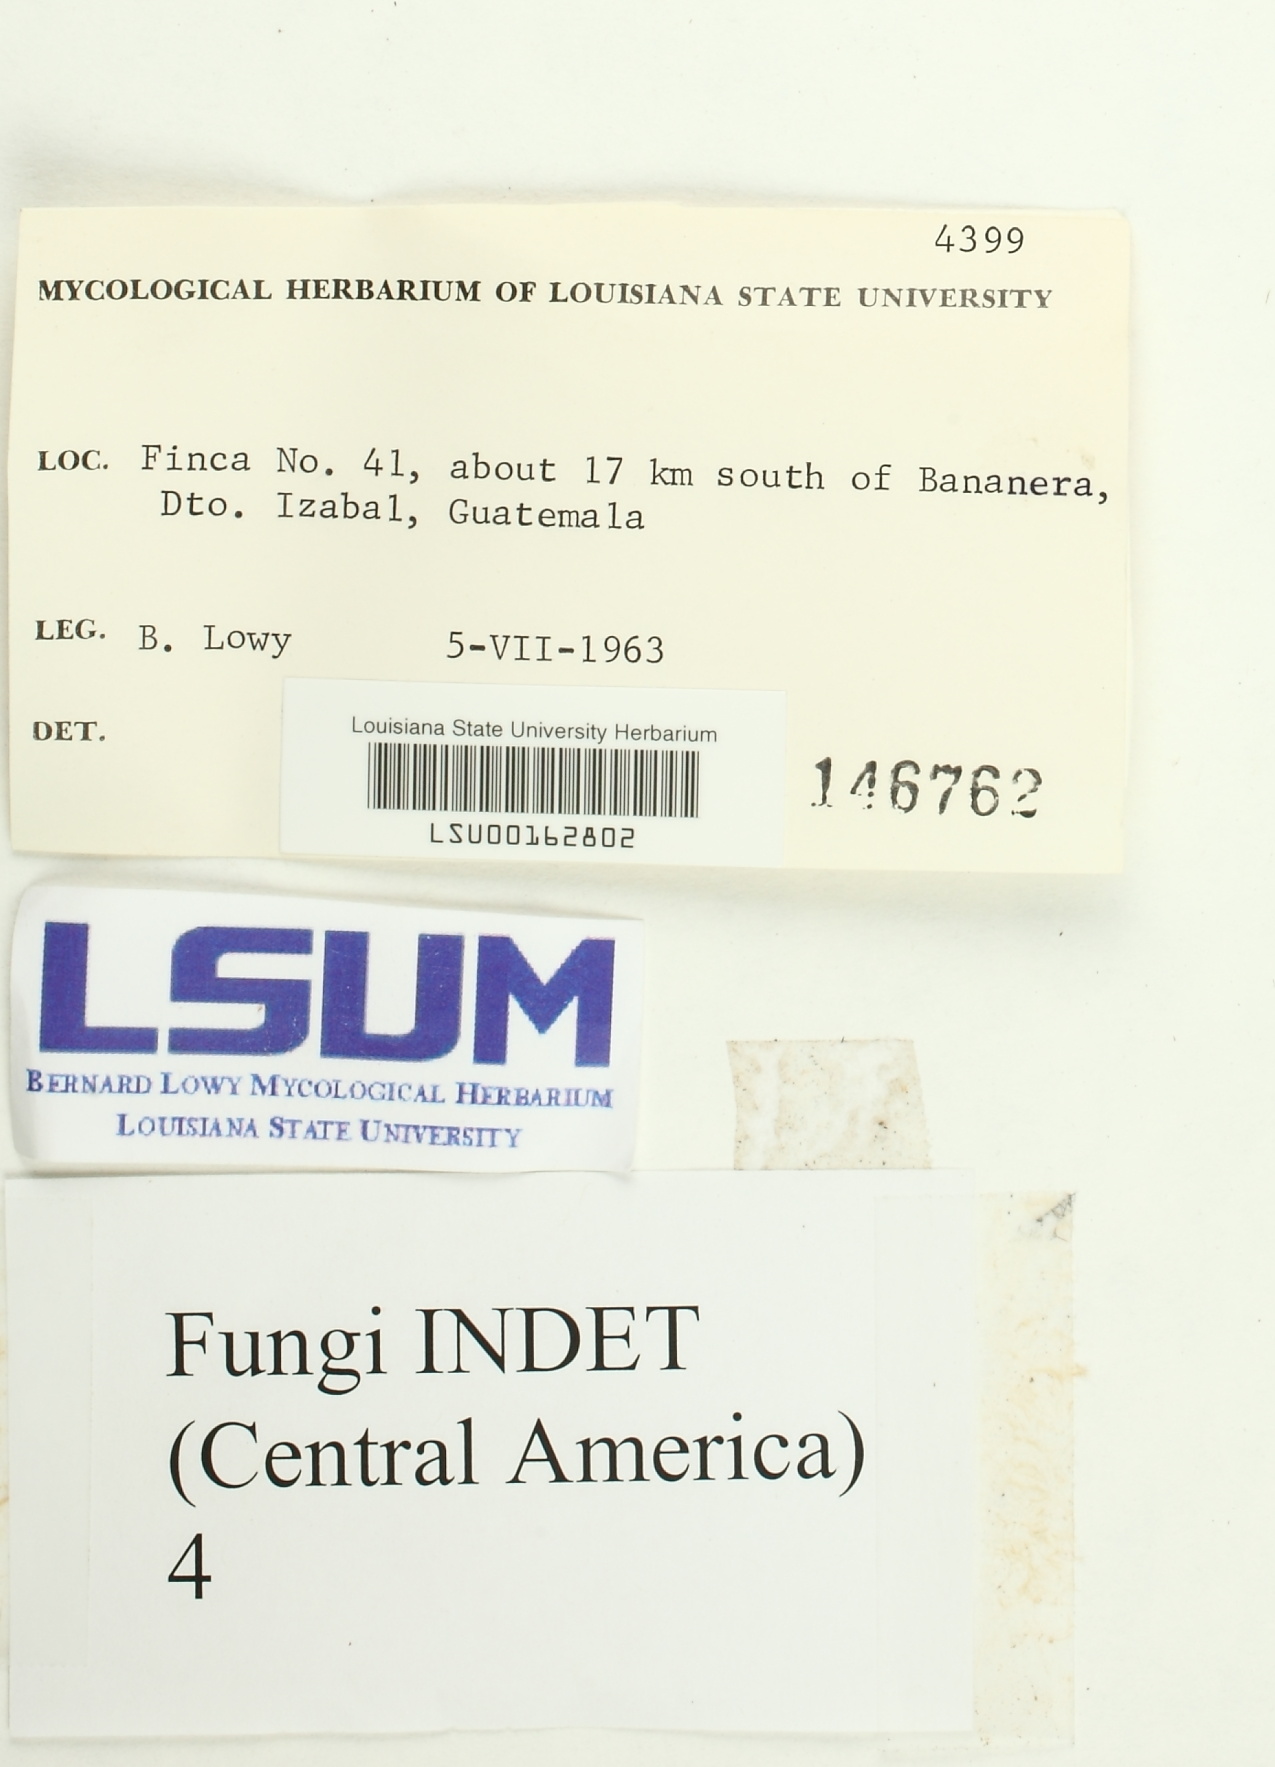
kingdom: Fungi
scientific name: Fungi
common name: Fungi
